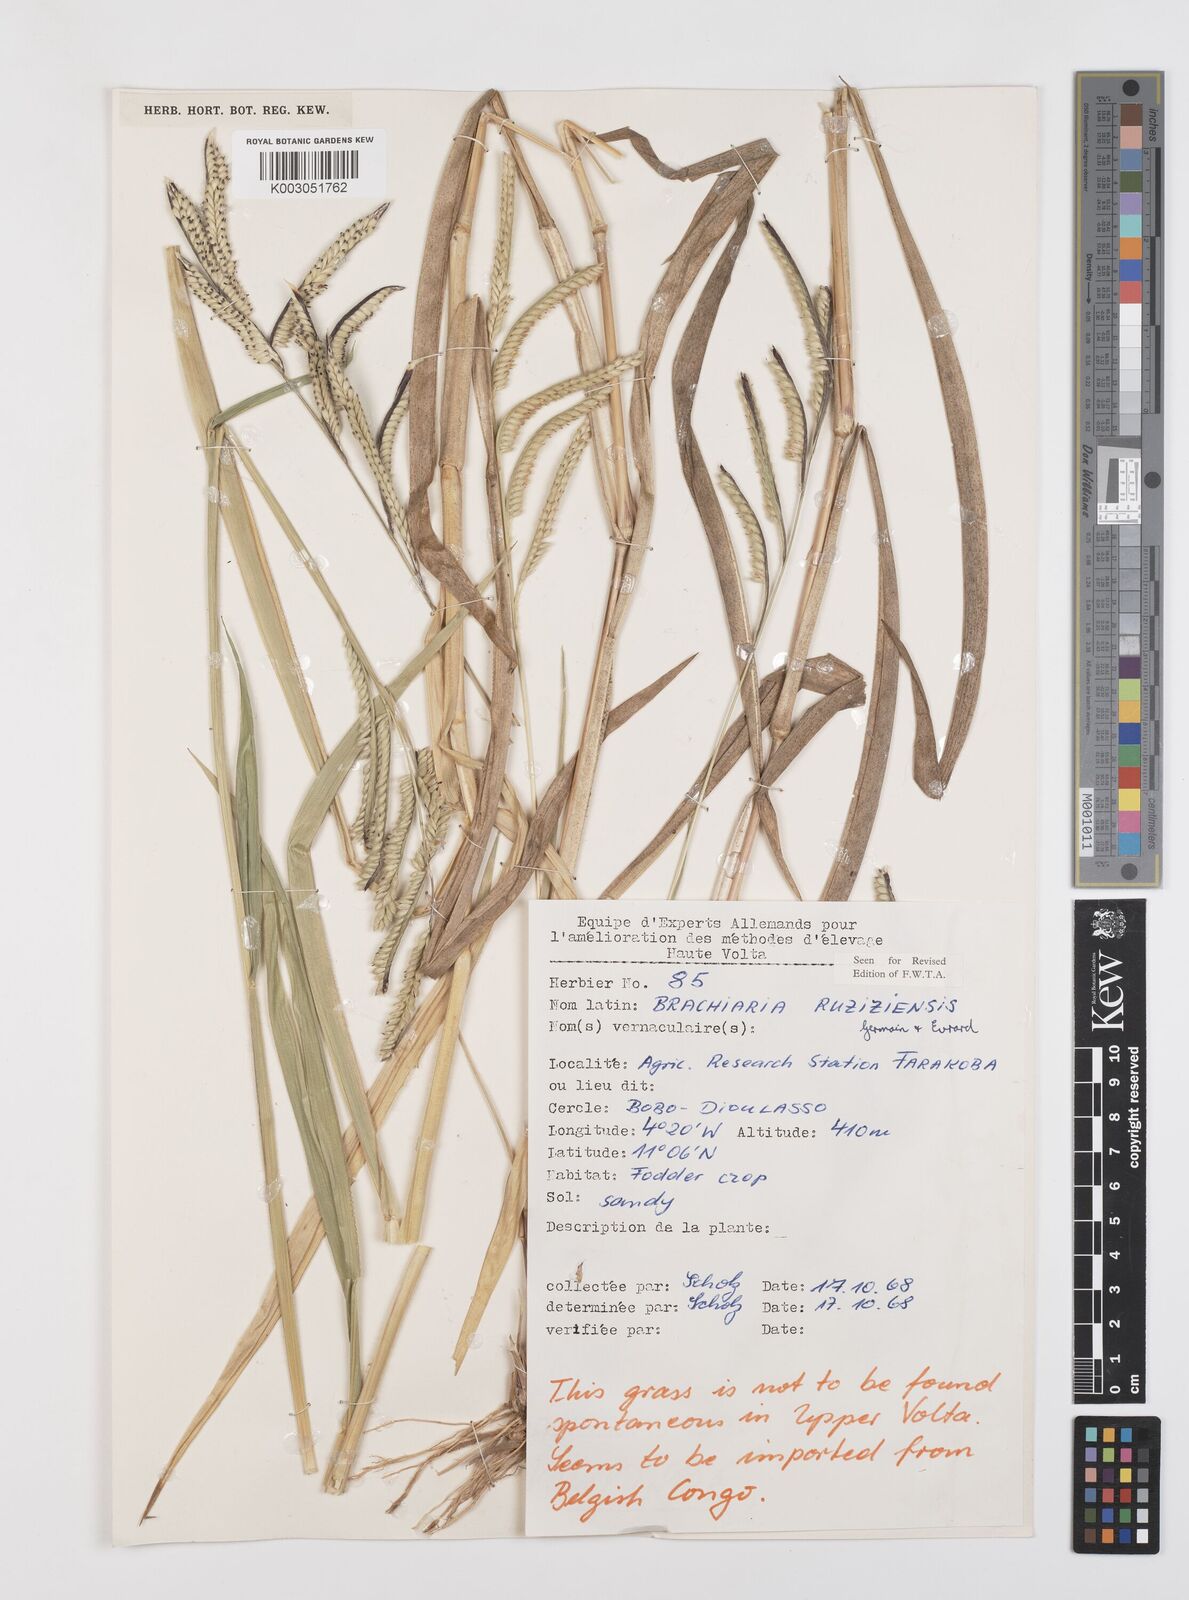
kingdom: Plantae
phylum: Tracheophyta
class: Liliopsida
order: Poales
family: Poaceae
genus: Urochloa
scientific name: Urochloa eminii
